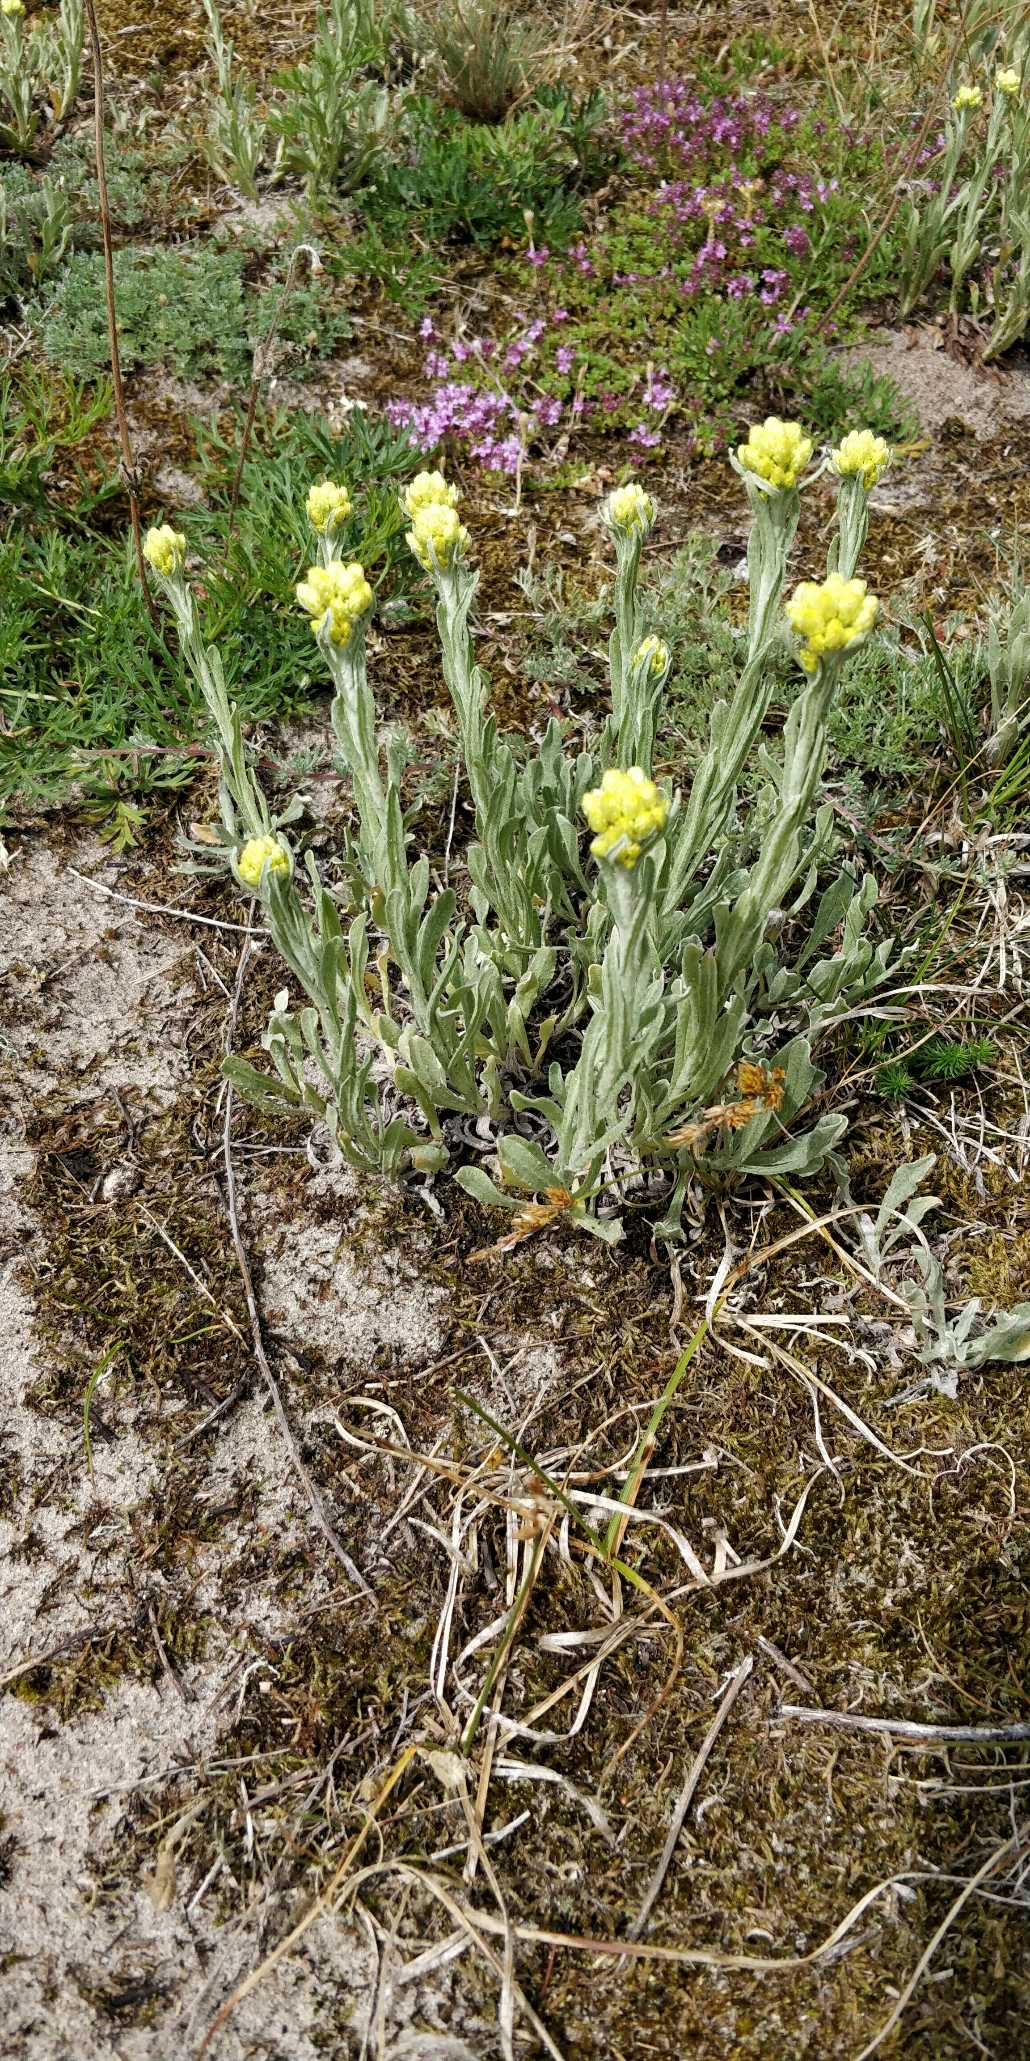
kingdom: Plantae
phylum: Tracheophyta
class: Magnoliopsida
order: Asterales
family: Asteraceae
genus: Helichrysum
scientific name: Helichrysum arenarium
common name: Gul evighedsblomst
